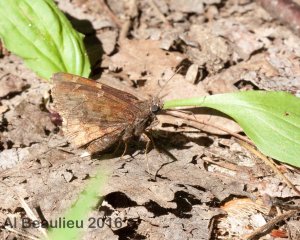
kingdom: Animalia
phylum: Arthropoda
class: Insecta
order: Lepidoptera
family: Hesperiidae
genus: Autochton
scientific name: Autochton
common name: Northern Cloudywing
